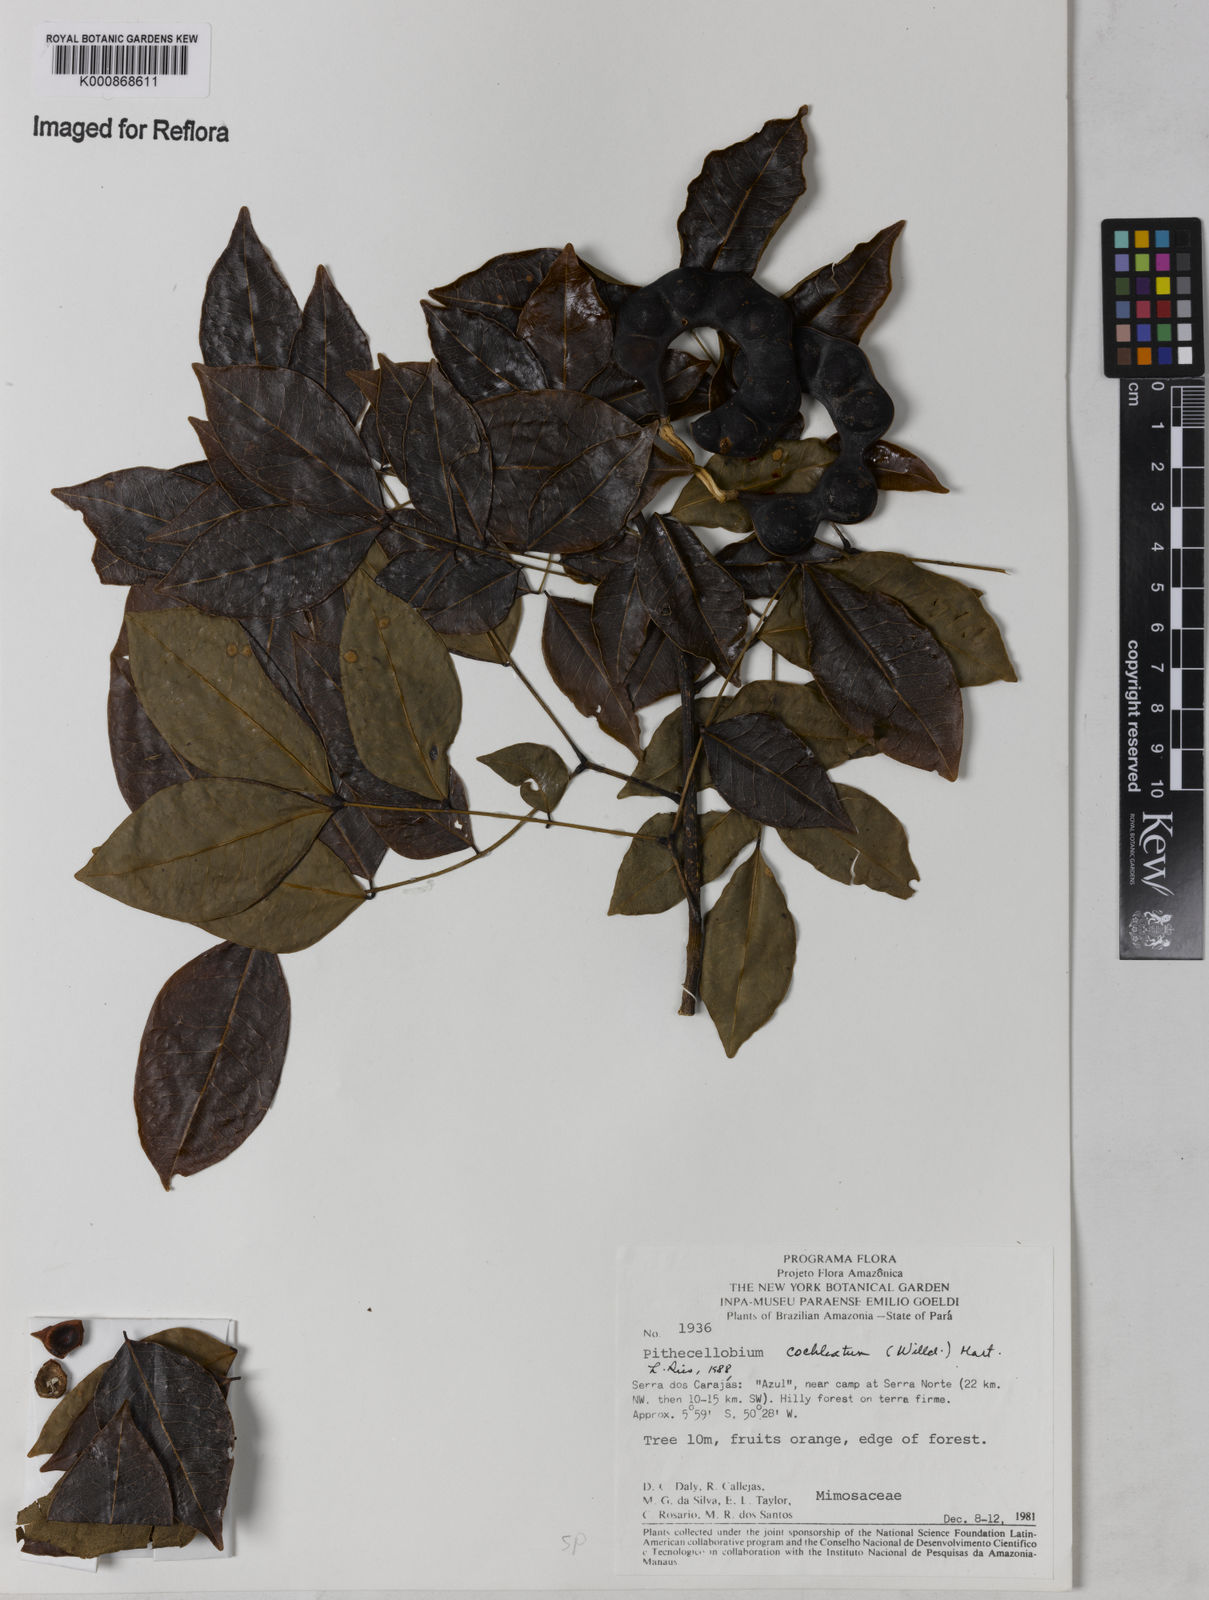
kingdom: Plantae
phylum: Tracheophyta
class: Magnoliopsida
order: Fabales
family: Fabaceae
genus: Jupunba
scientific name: Jupunba cochleata
